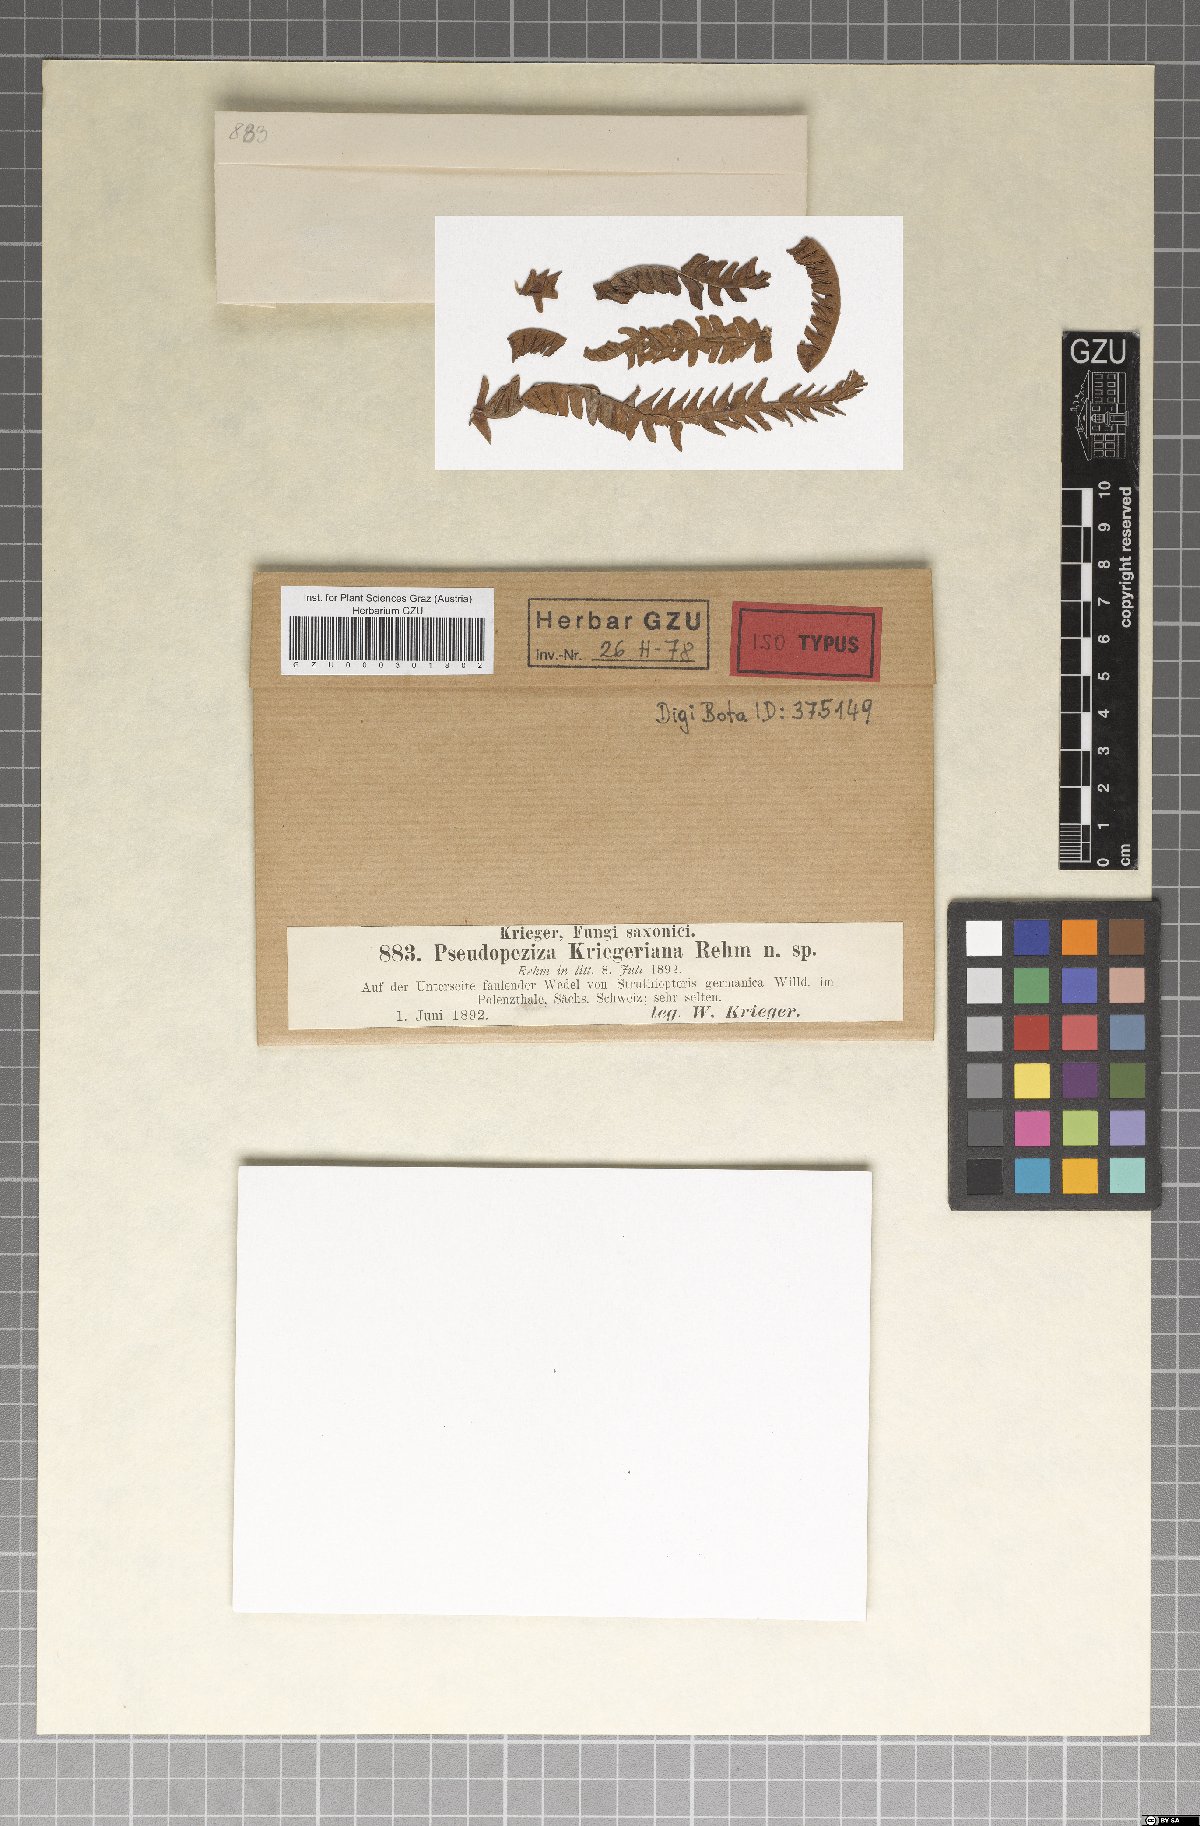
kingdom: Fungi
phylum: Ascomycota
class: Leotiomycetes
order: Helotiales
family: Drepanopezizaceae
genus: Pseudopeziza
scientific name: Pseudopeziza kriegeriana
